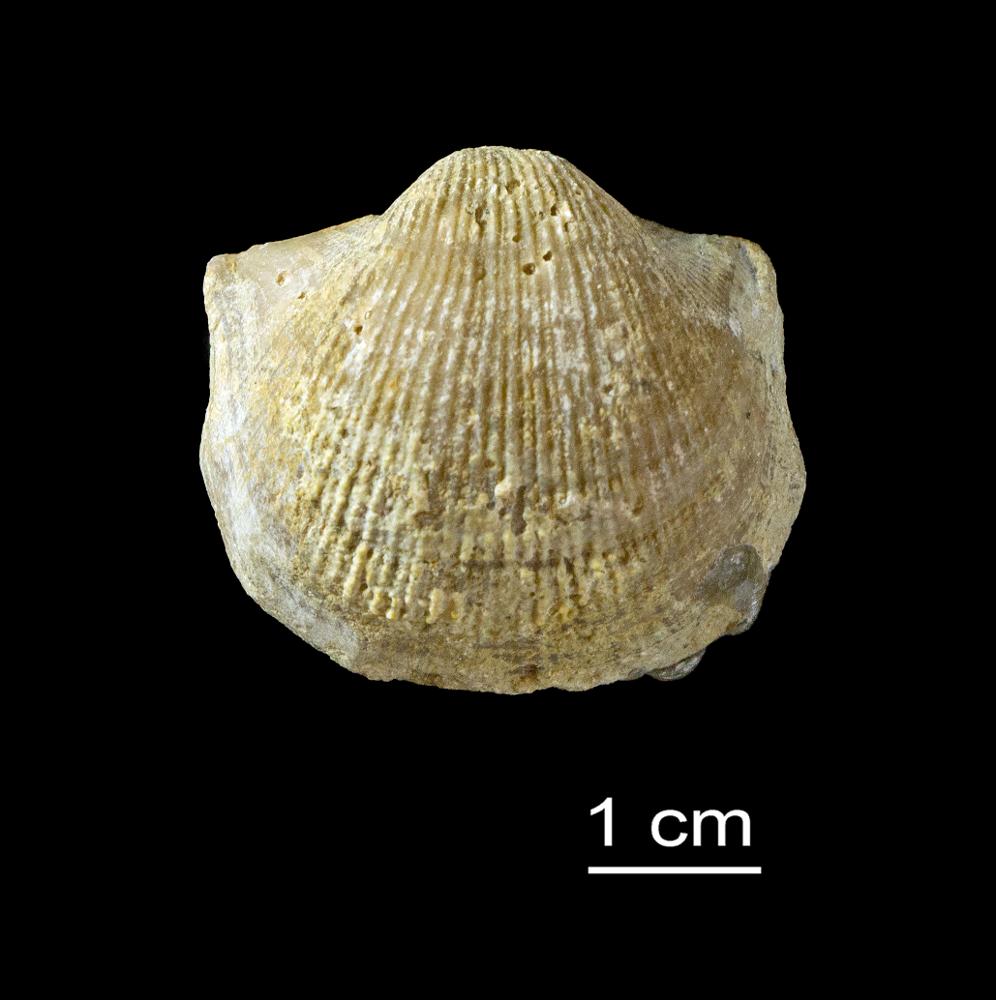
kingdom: Animalia
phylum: Brachiopoda
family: Gonambonitidae
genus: Estlandia
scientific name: Estlandia pyron
